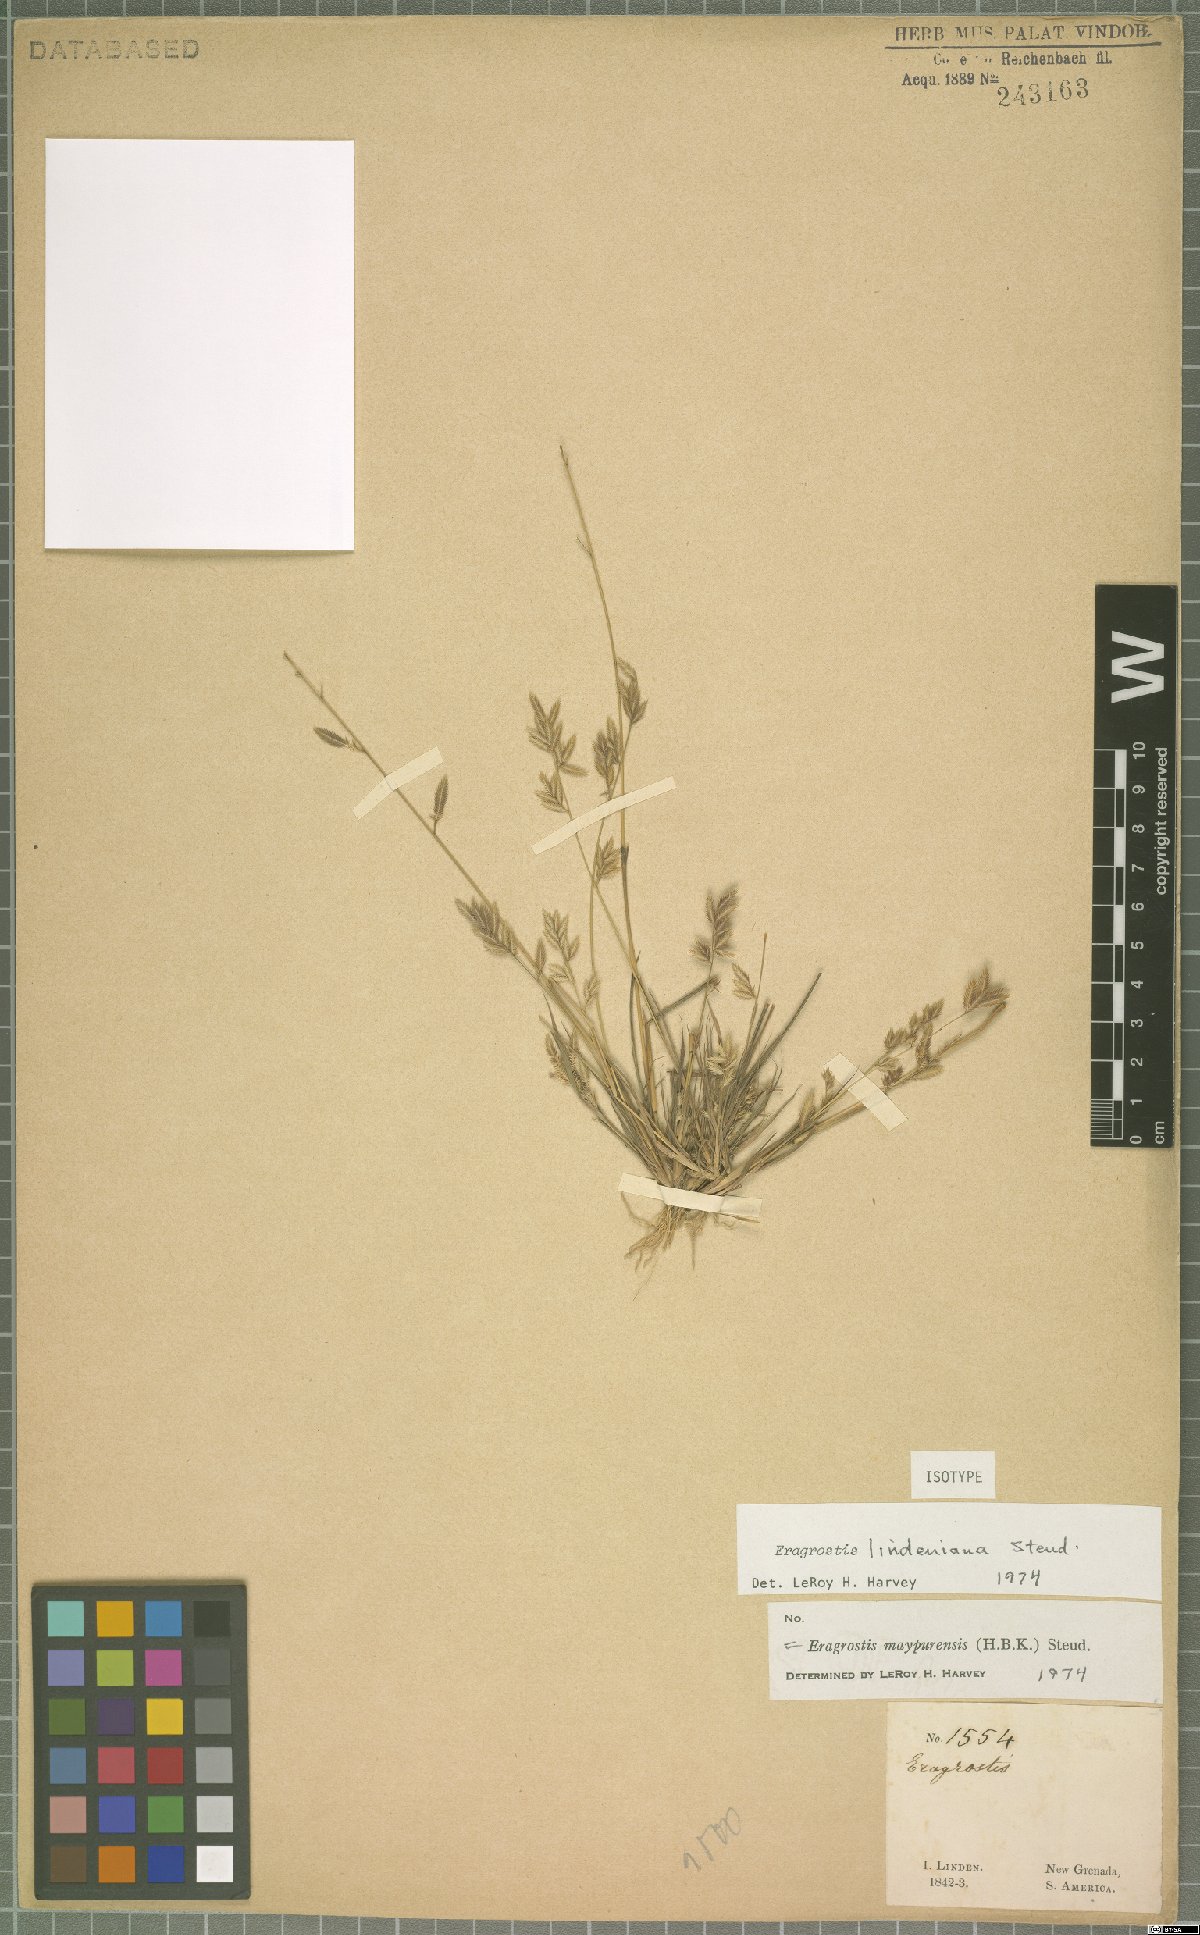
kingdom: Plantae
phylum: Tracheophyta
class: Liliopsida
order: Poales
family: Poaceae
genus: Eragrostis
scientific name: Eragrostis maypurensis
